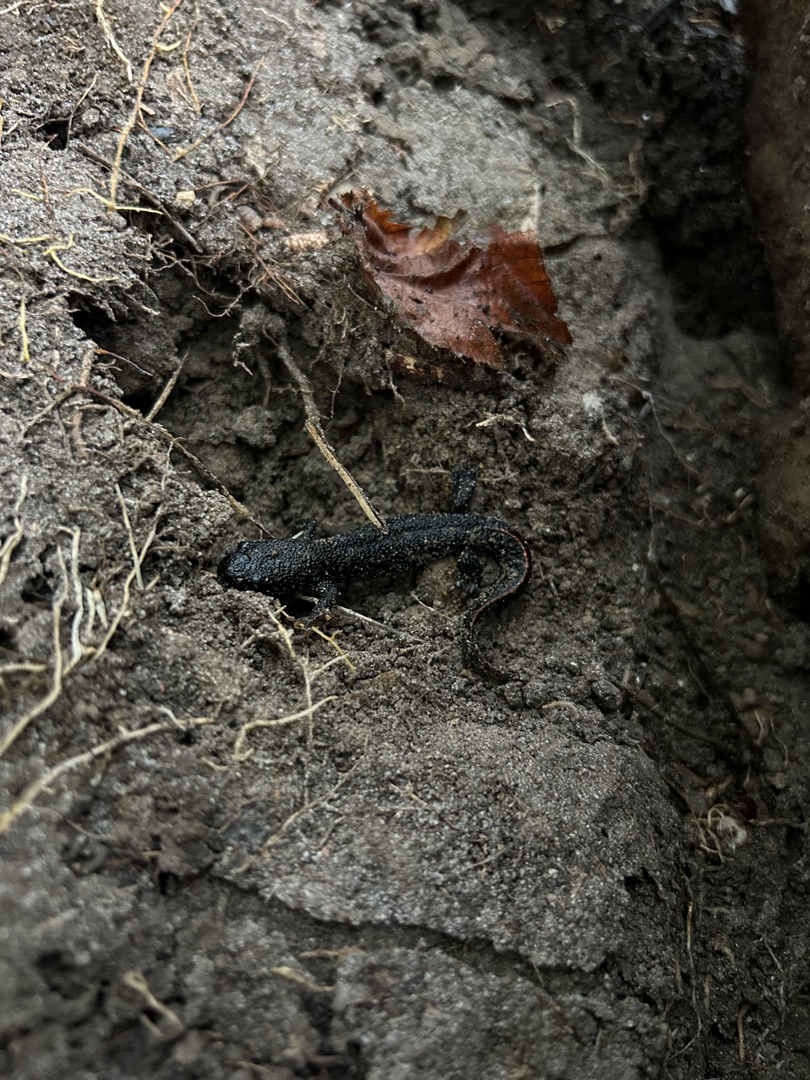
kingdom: Animalia
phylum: Chordata
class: Amphibia
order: Caudata
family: Salamandridae
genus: Triturus
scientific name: Triturus cristatus
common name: Stor vandsalamander
